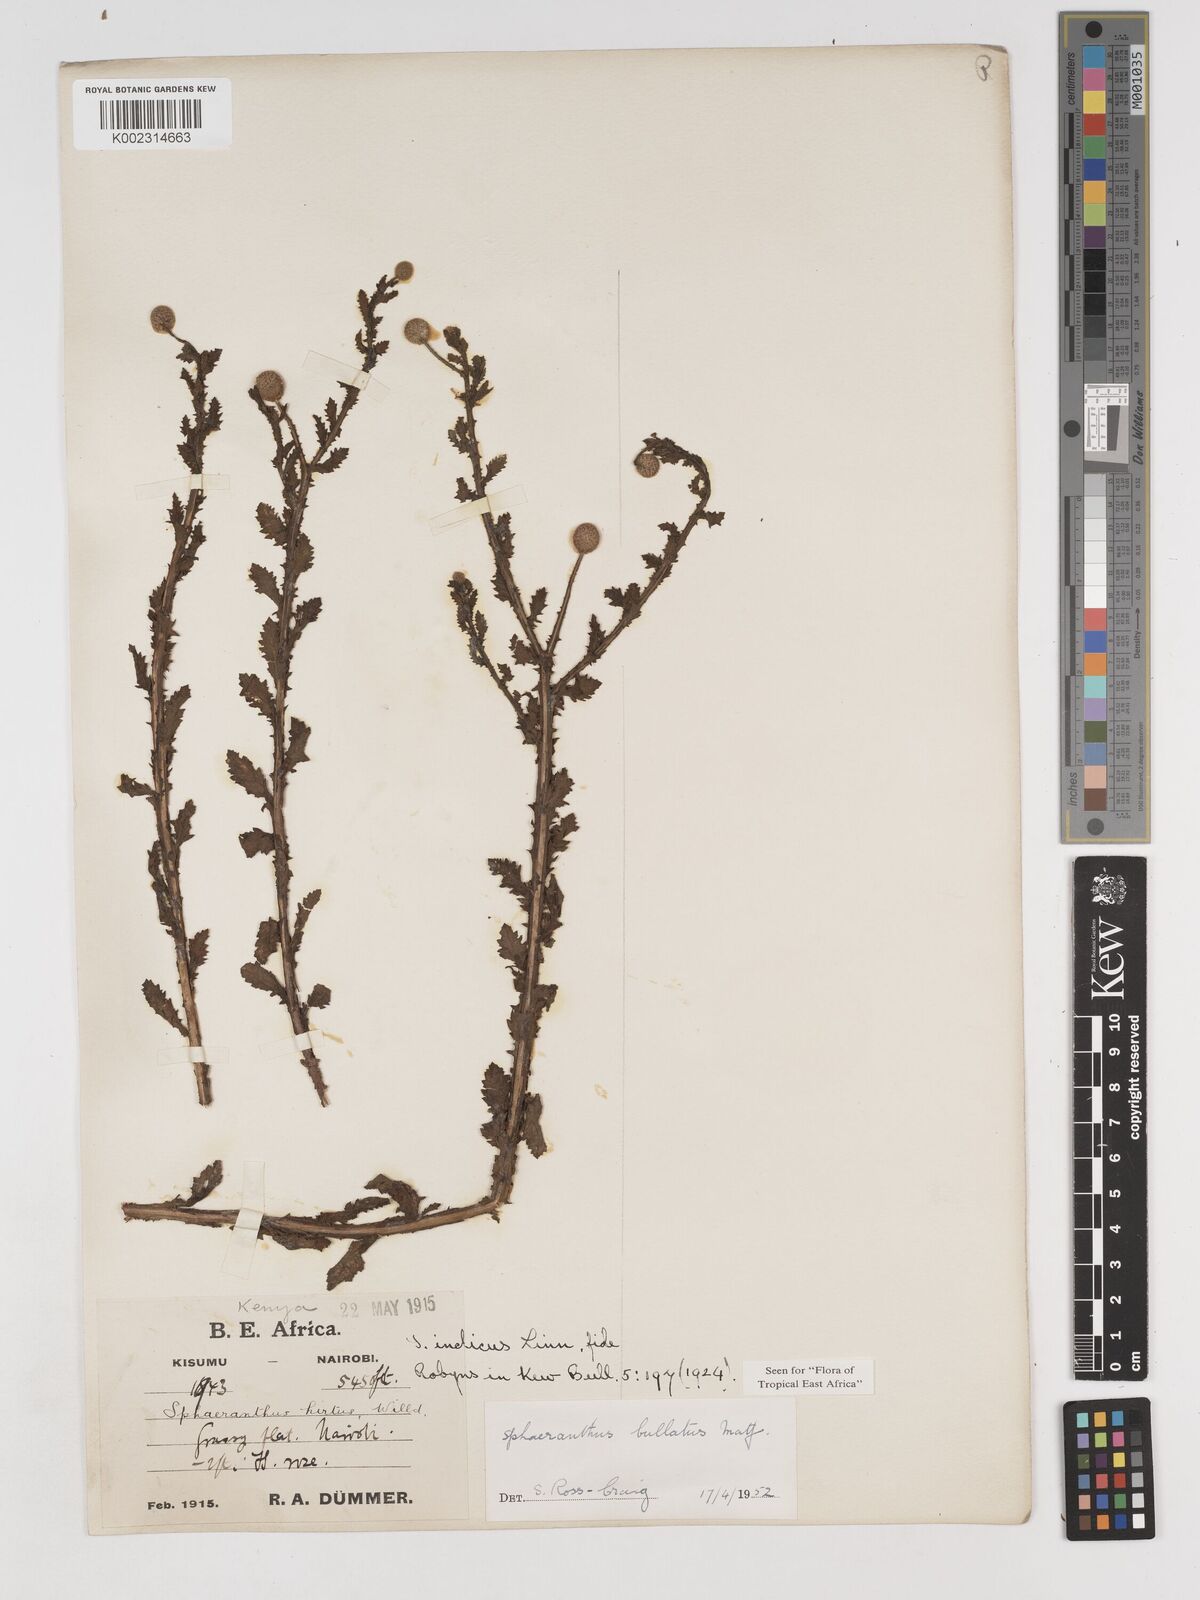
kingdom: Plantae
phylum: Tracheophyta
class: Magnoliopsida
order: Asterales
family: Asteraceae
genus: Sphaeranthus
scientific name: Sphaeranthus bullatus
